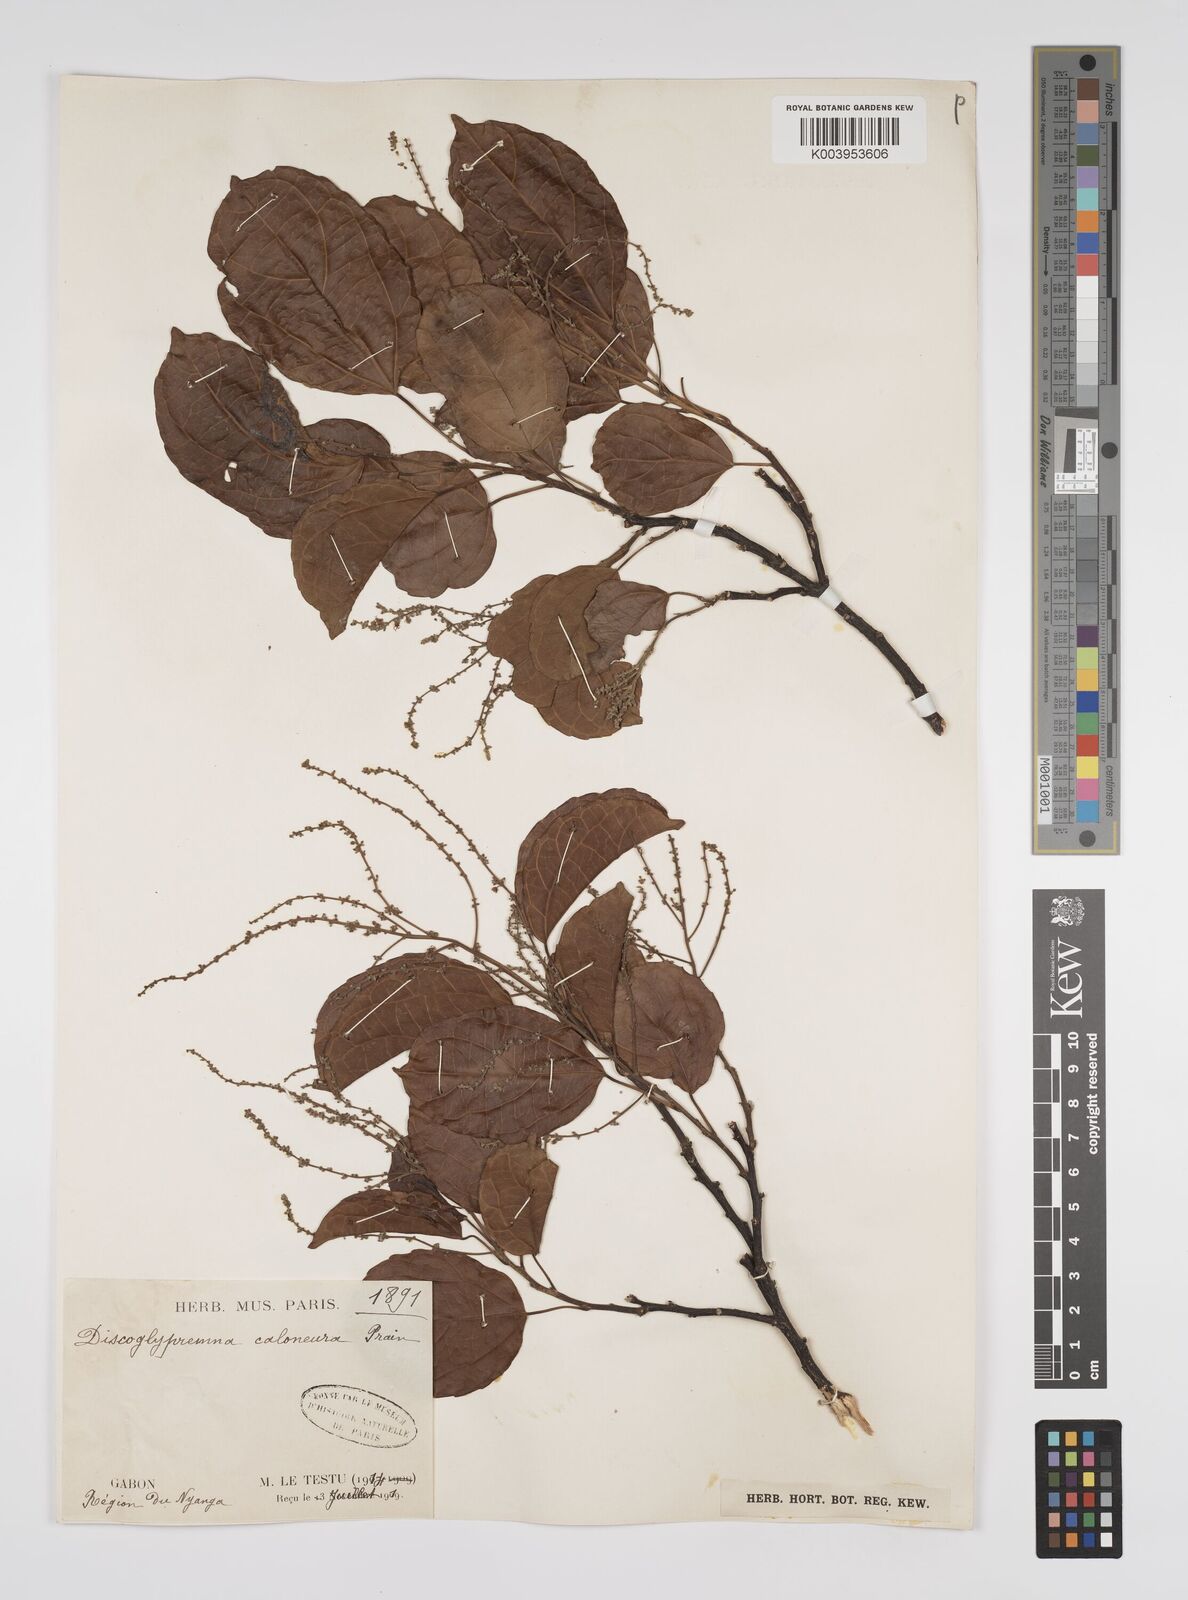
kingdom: Plantae
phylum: Tracheophyta
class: Magnoliopsida
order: Malpighiales
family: Euphorbiaceae
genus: Discoglypremna
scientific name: Discoglypremna caloneura
